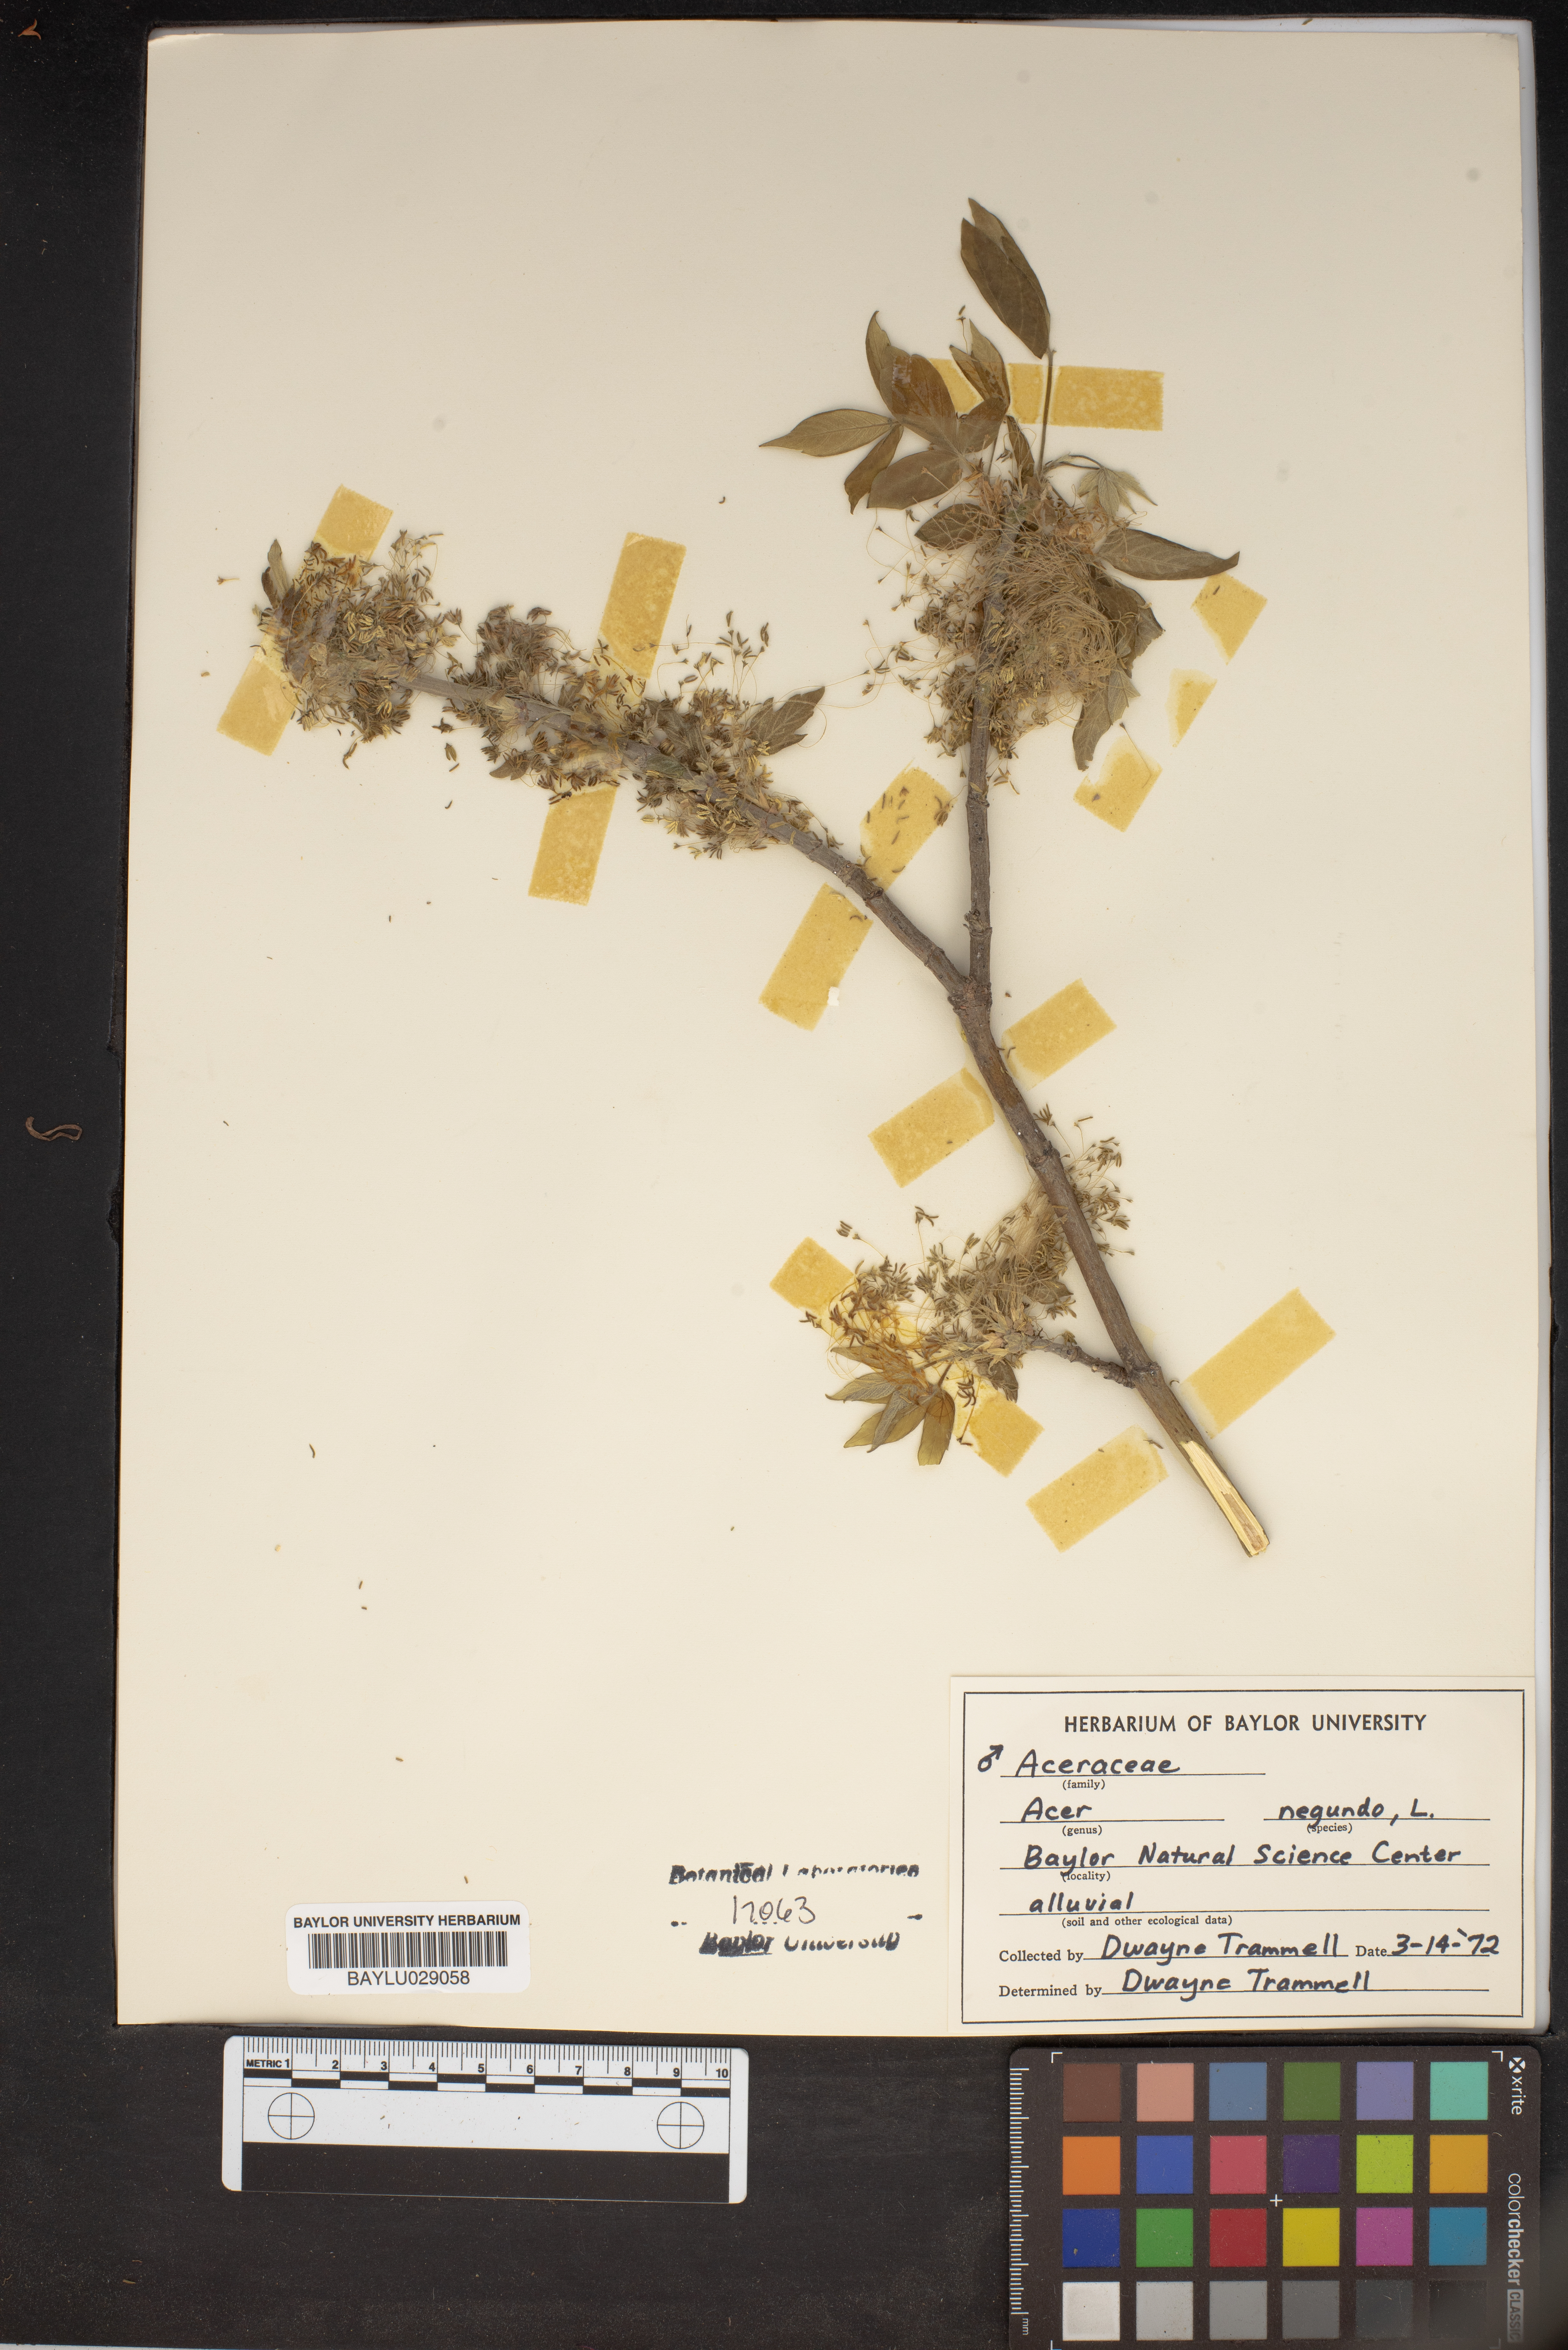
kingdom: Plantae
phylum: Tracheophyta
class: Magnoliopsida
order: Sapindales
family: Sapindaceae
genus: Acer
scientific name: Acer negundo
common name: Ashleaf maple
